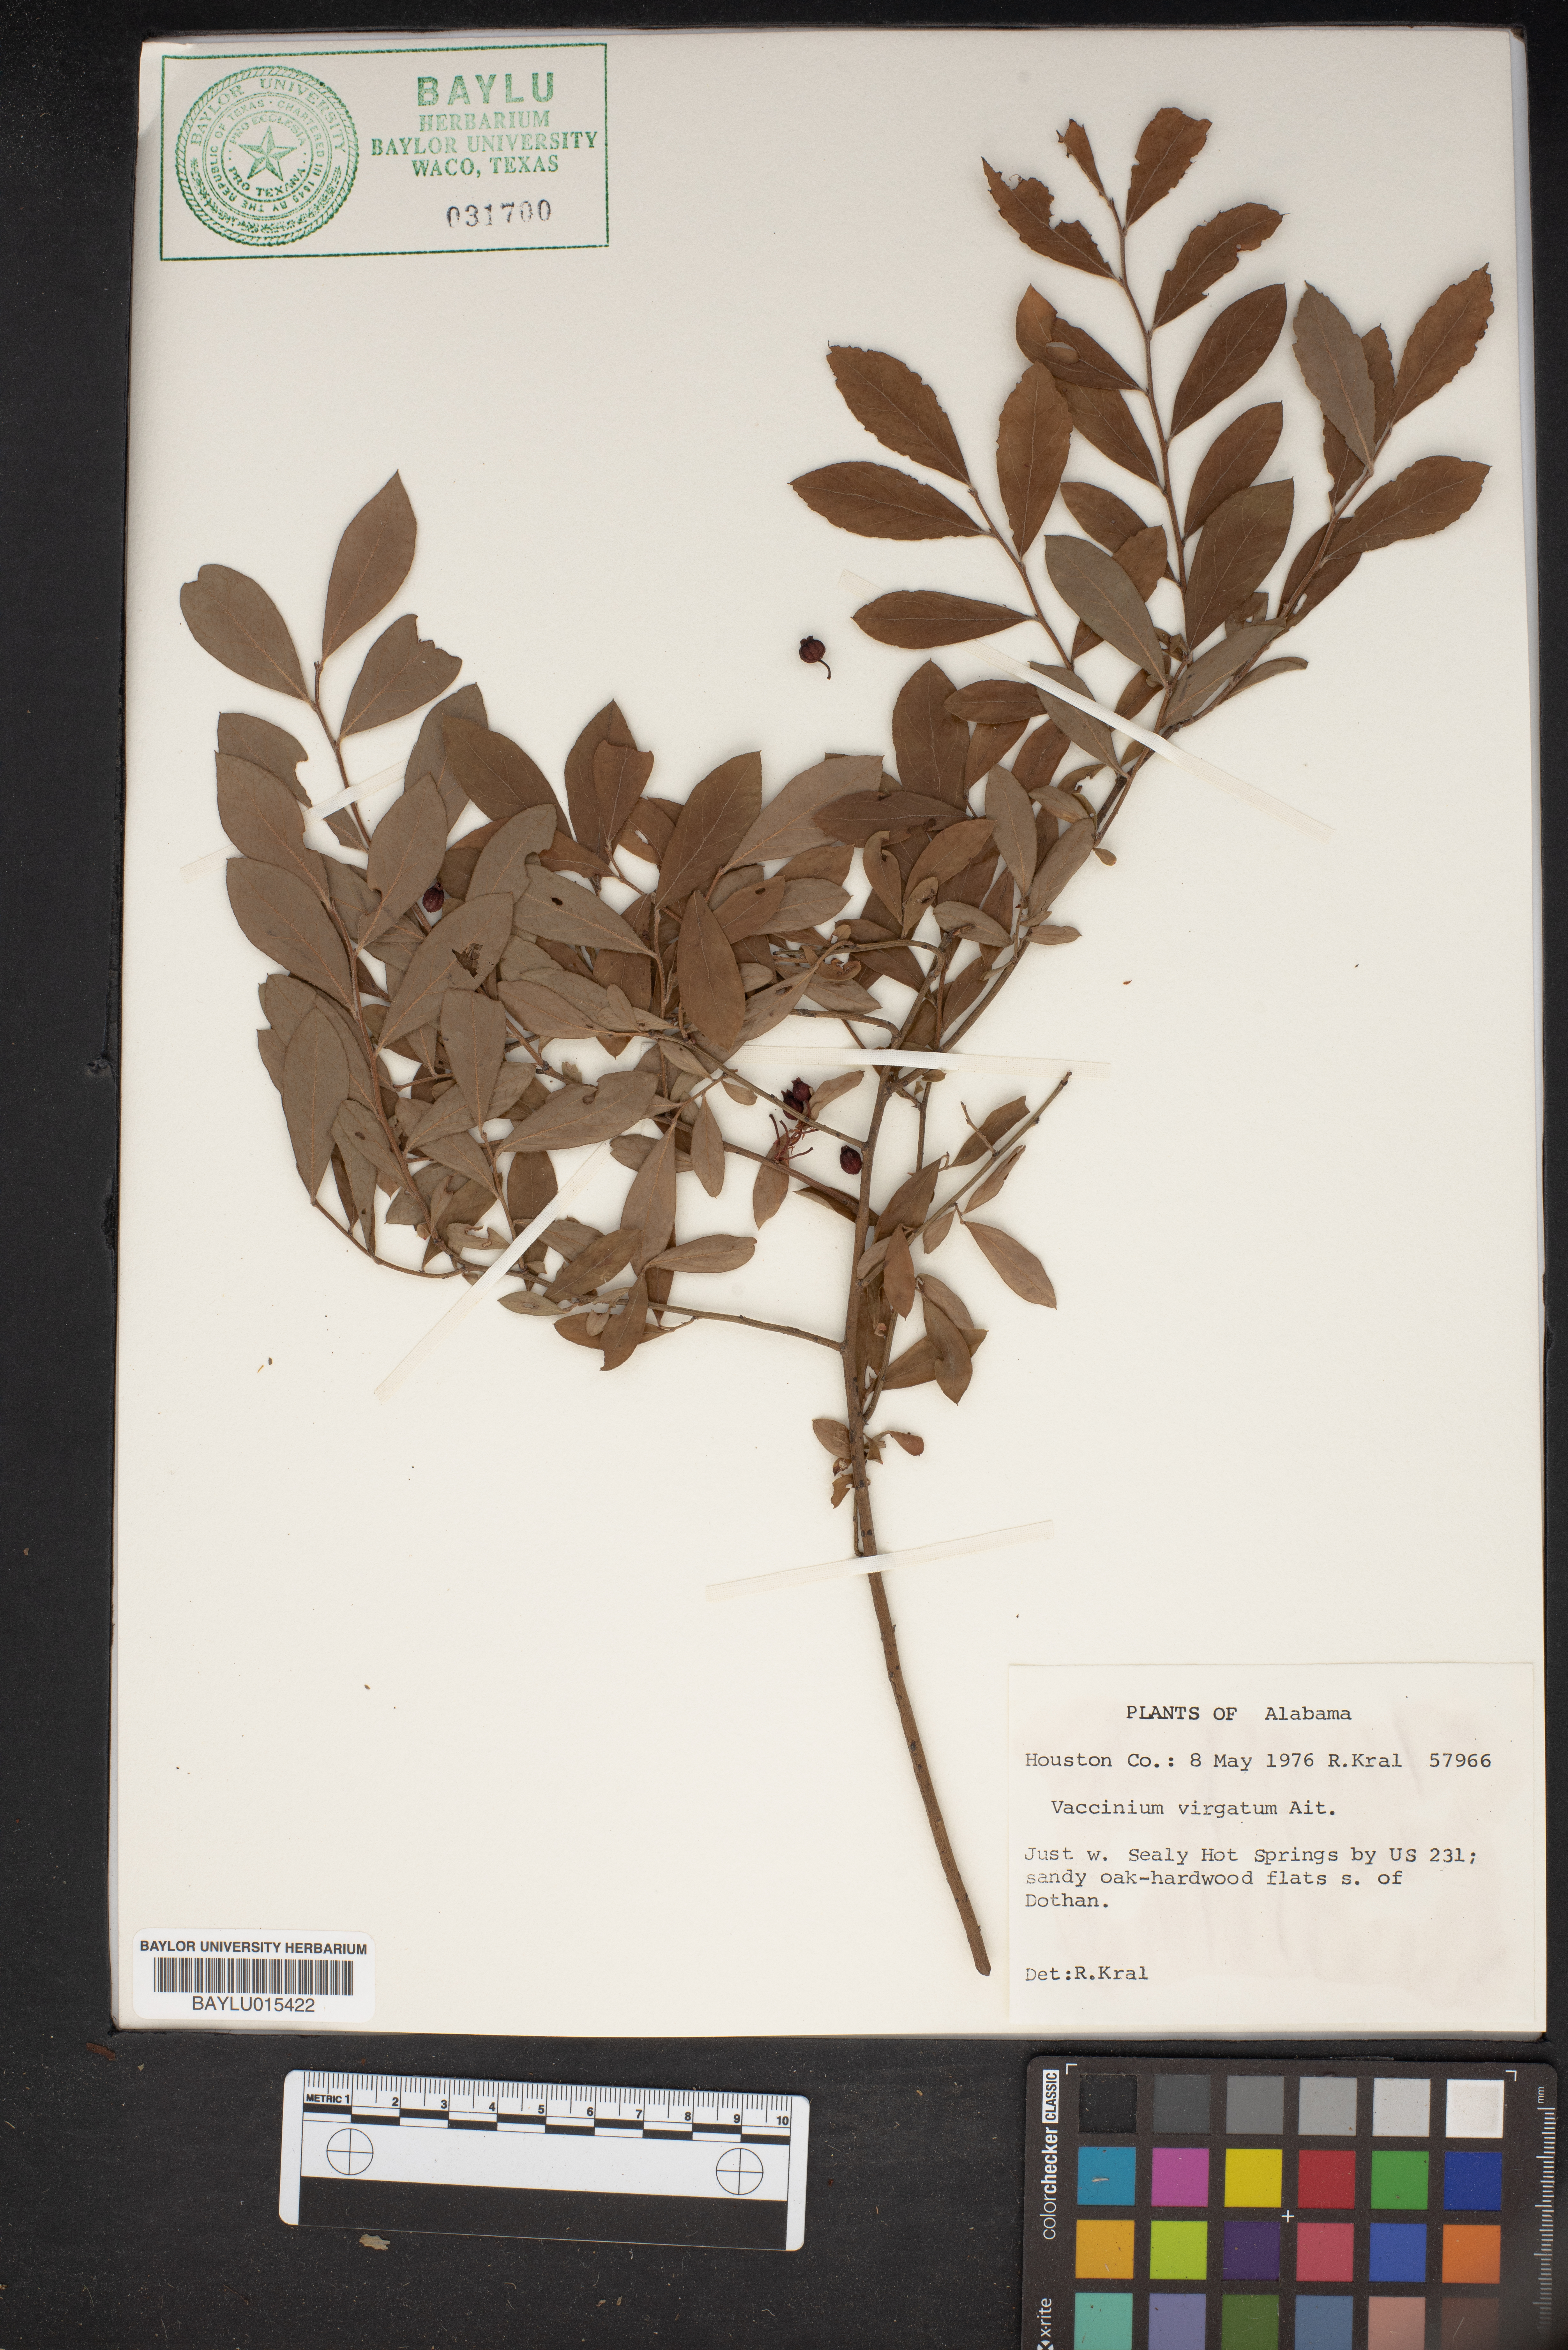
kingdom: Plantae
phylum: Tracheophyta
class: Magnoliopsida
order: Ericales
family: Ericaceae
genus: Vaccinium
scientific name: Vaccinium corymbosum
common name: Blueberry
